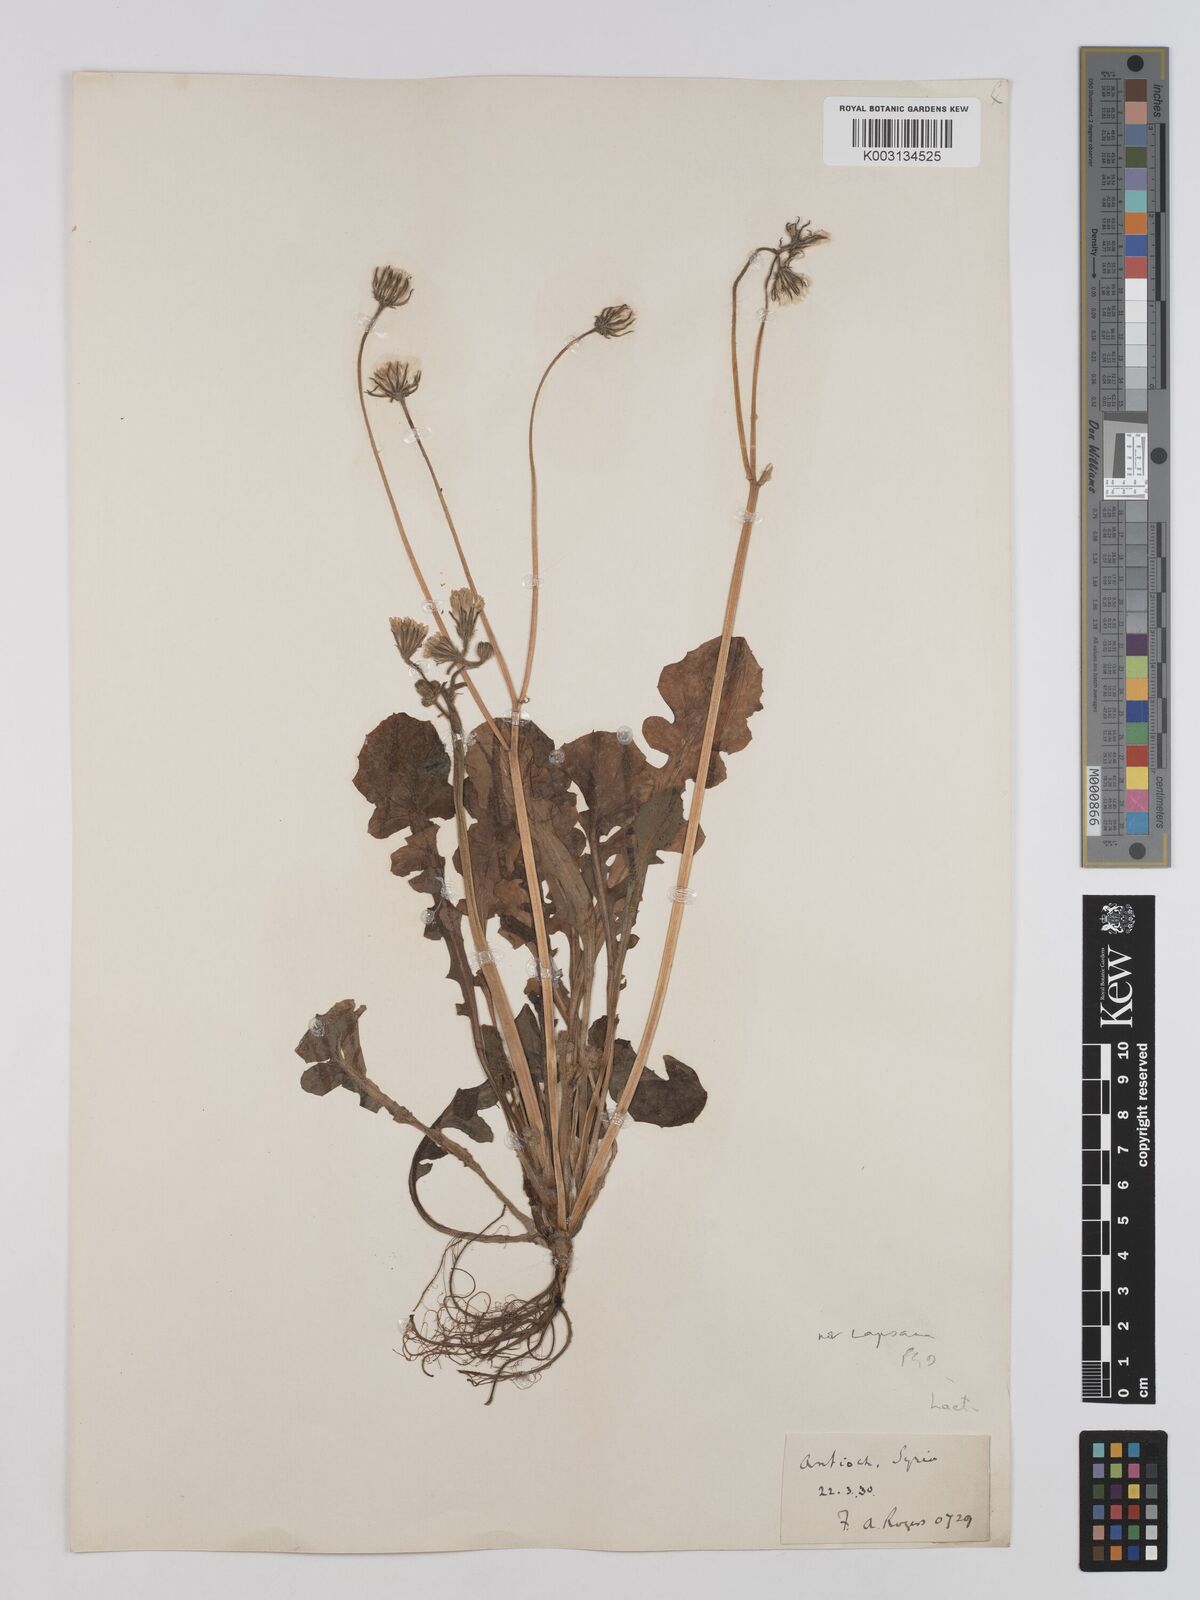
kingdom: Plantae
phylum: Tracheophyta
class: Magnoliopsida
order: Asterales
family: Asteraceae
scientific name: Asteraceae
